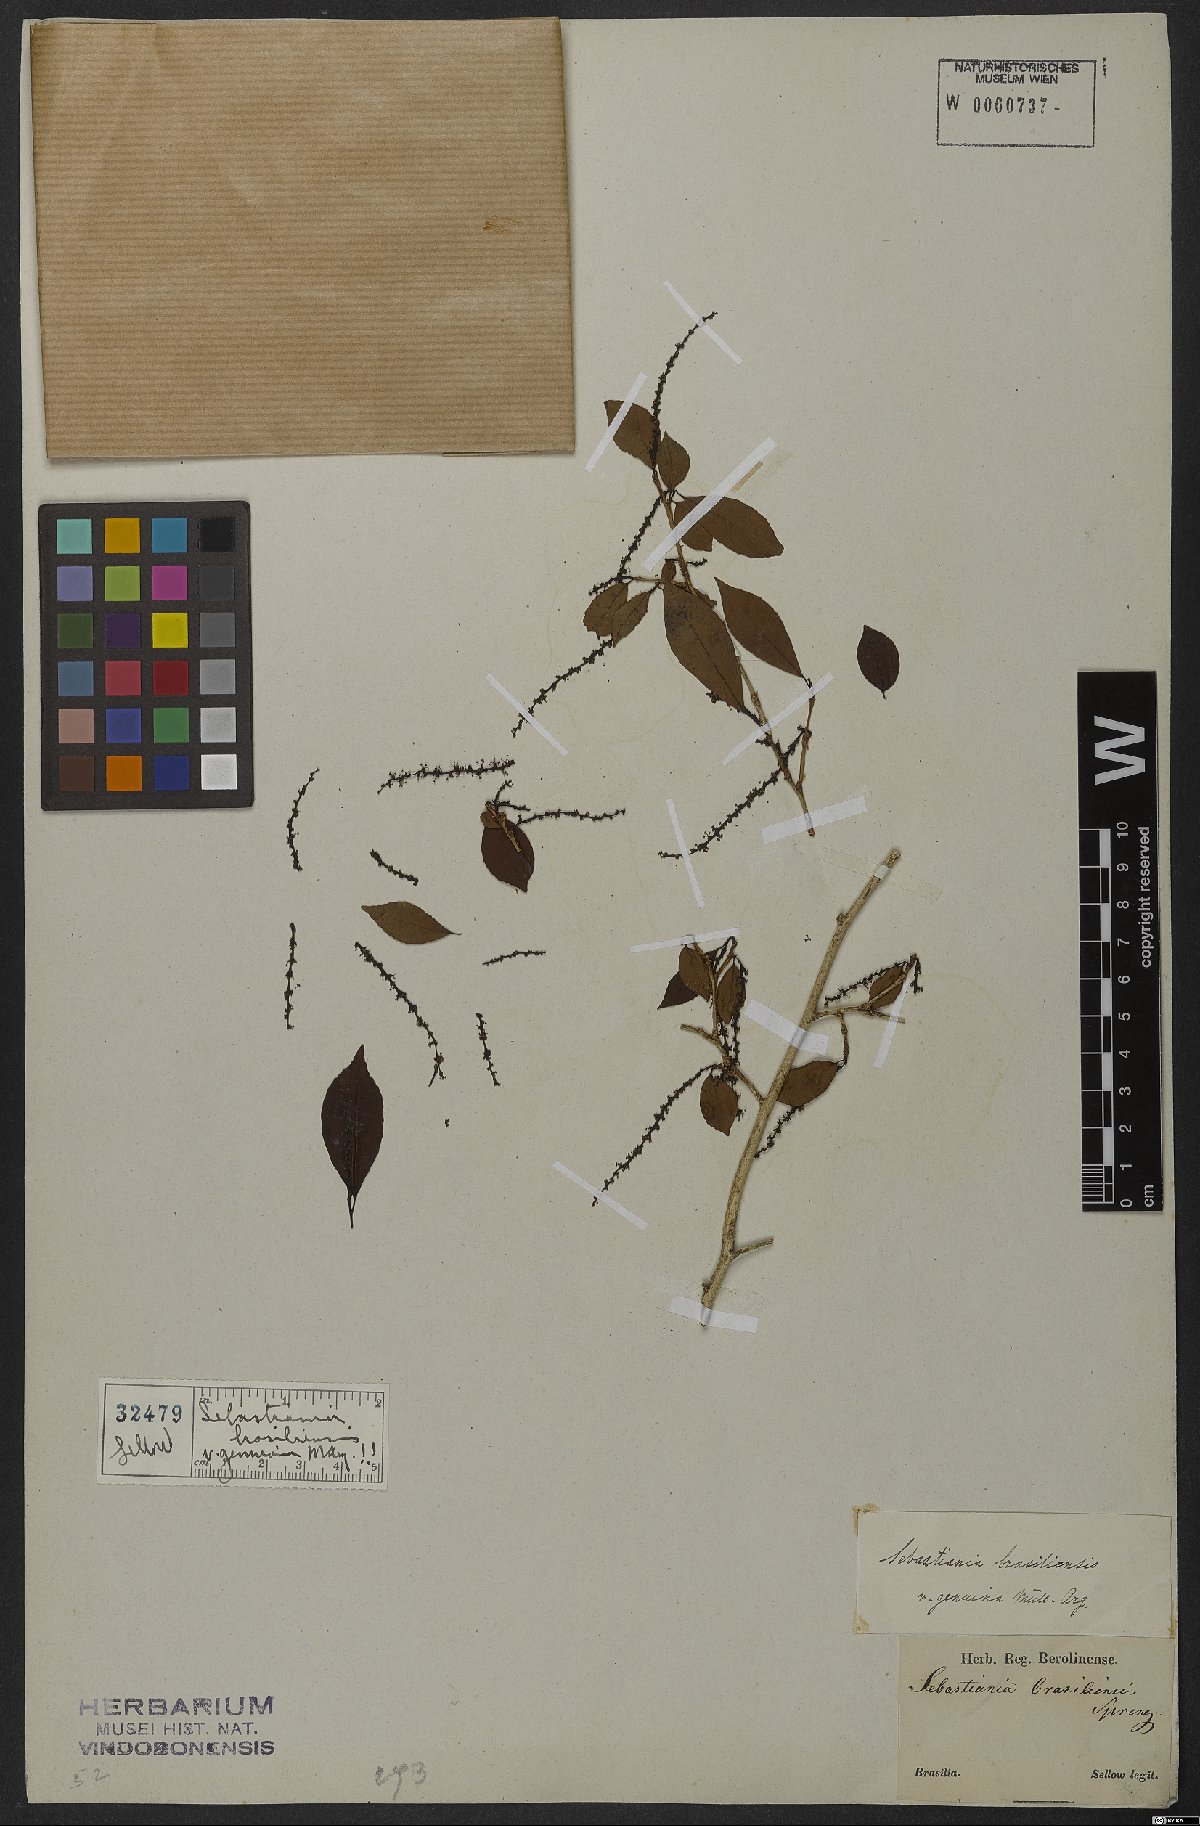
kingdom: Plantae
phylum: Tracheophyta
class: Magnoliopsida
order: Malpighiales
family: Euphorbiaceae
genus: Sebastiania
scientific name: Sebastiania brasiliensis
